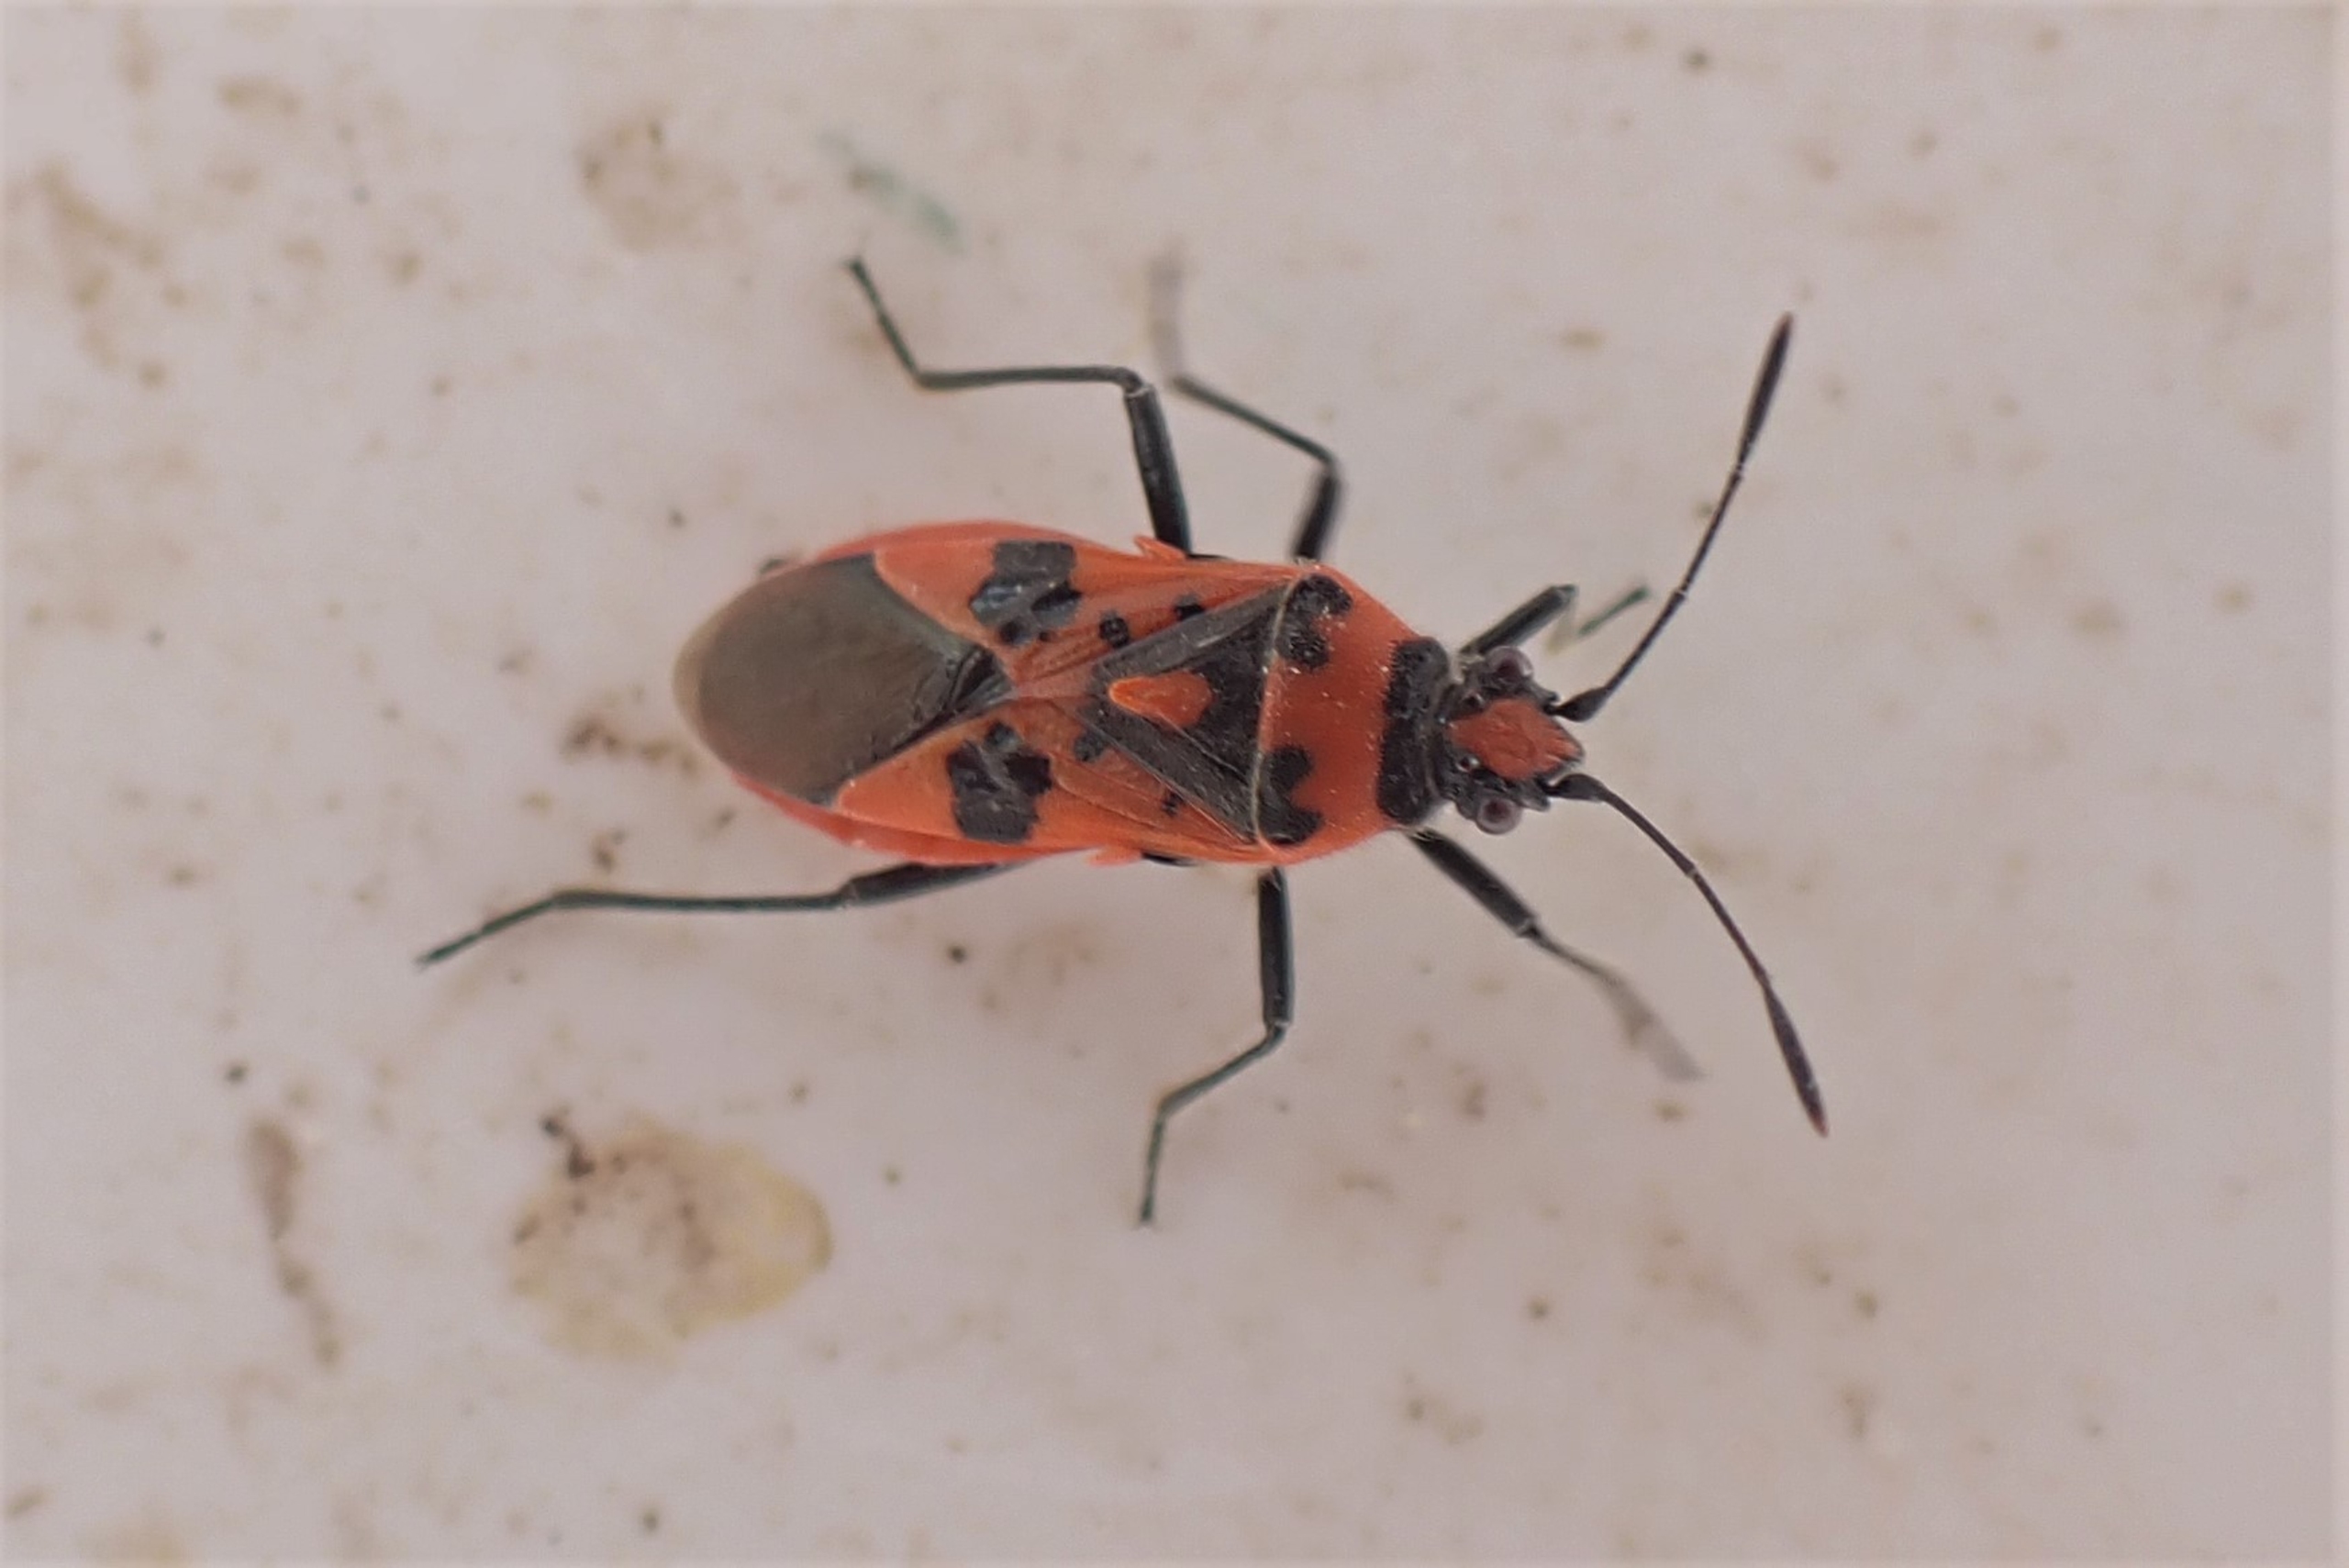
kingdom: Animalia
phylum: Arthropoda
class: Insecta
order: Hemiptera
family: Rhopalidae
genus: Corizus
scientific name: Corizus hyoscyami
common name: Rød kanttæge
